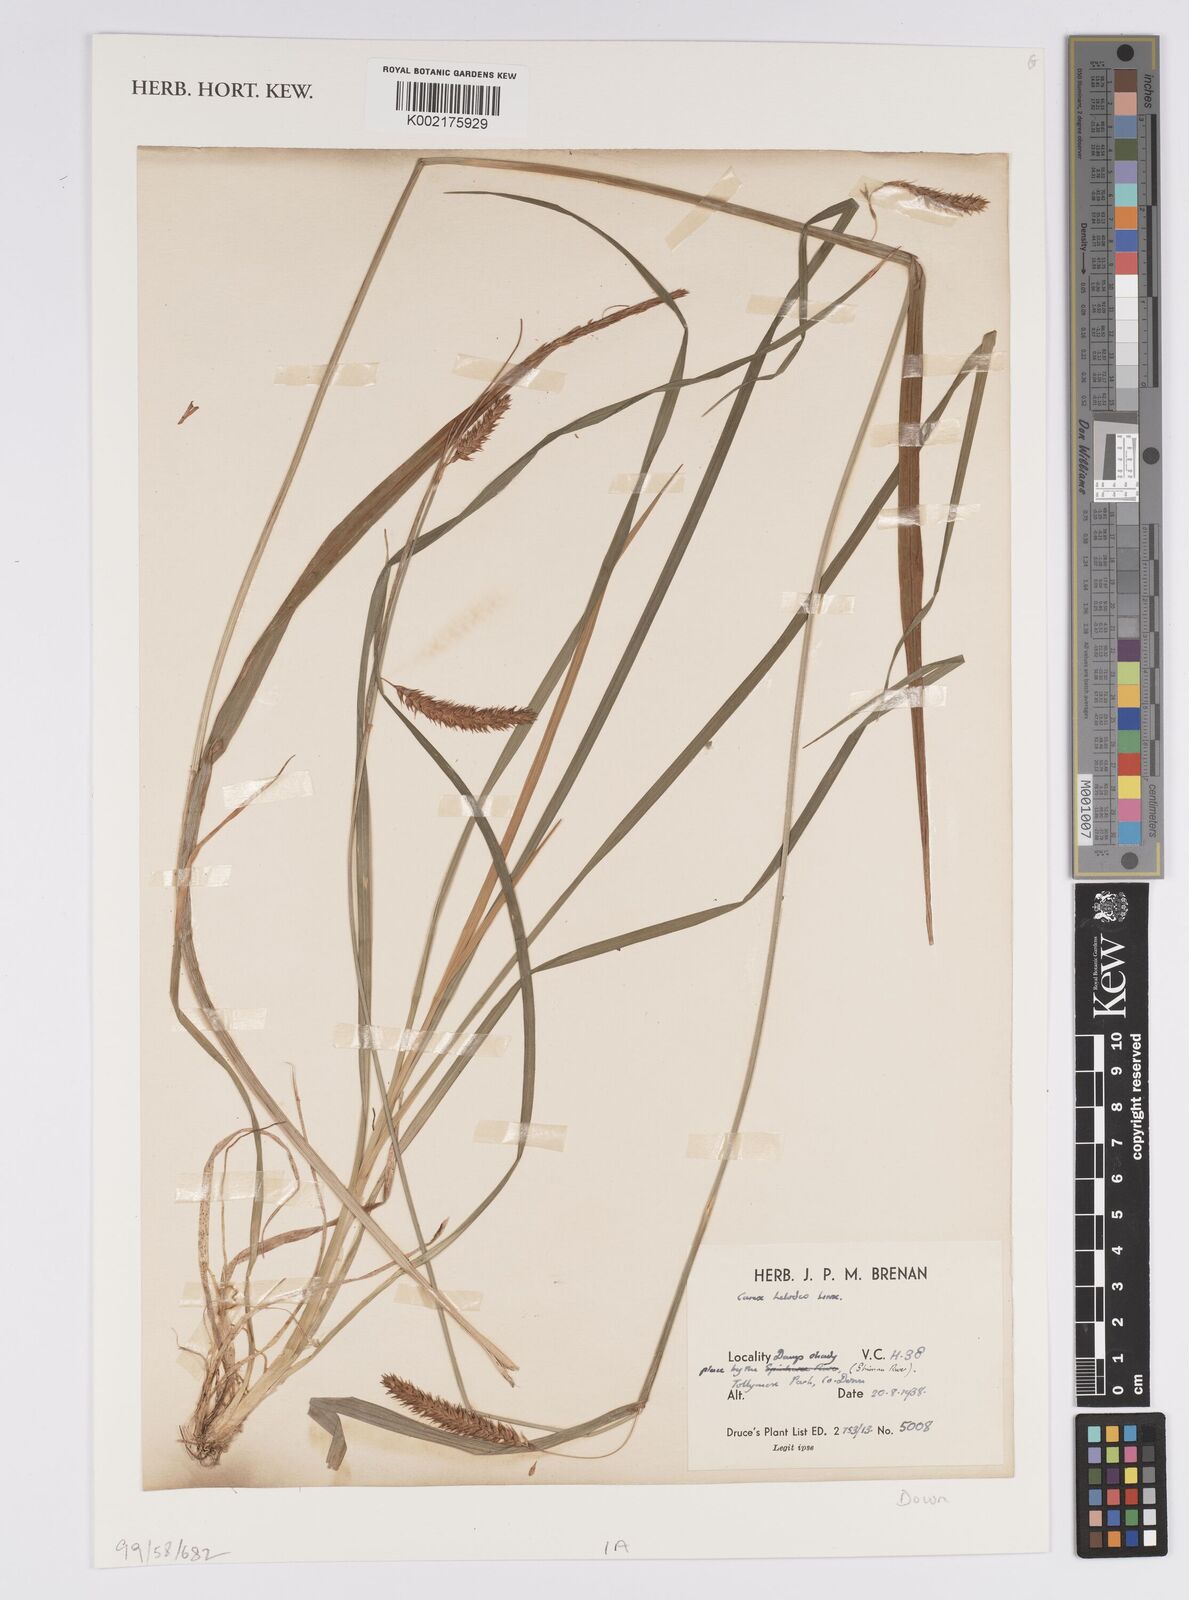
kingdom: Plantae
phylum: Tracheophyta
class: Liliopsida
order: Poales
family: Cyperaceae
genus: Carex
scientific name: Carex laevigata
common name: Smooth-stalked sedge
